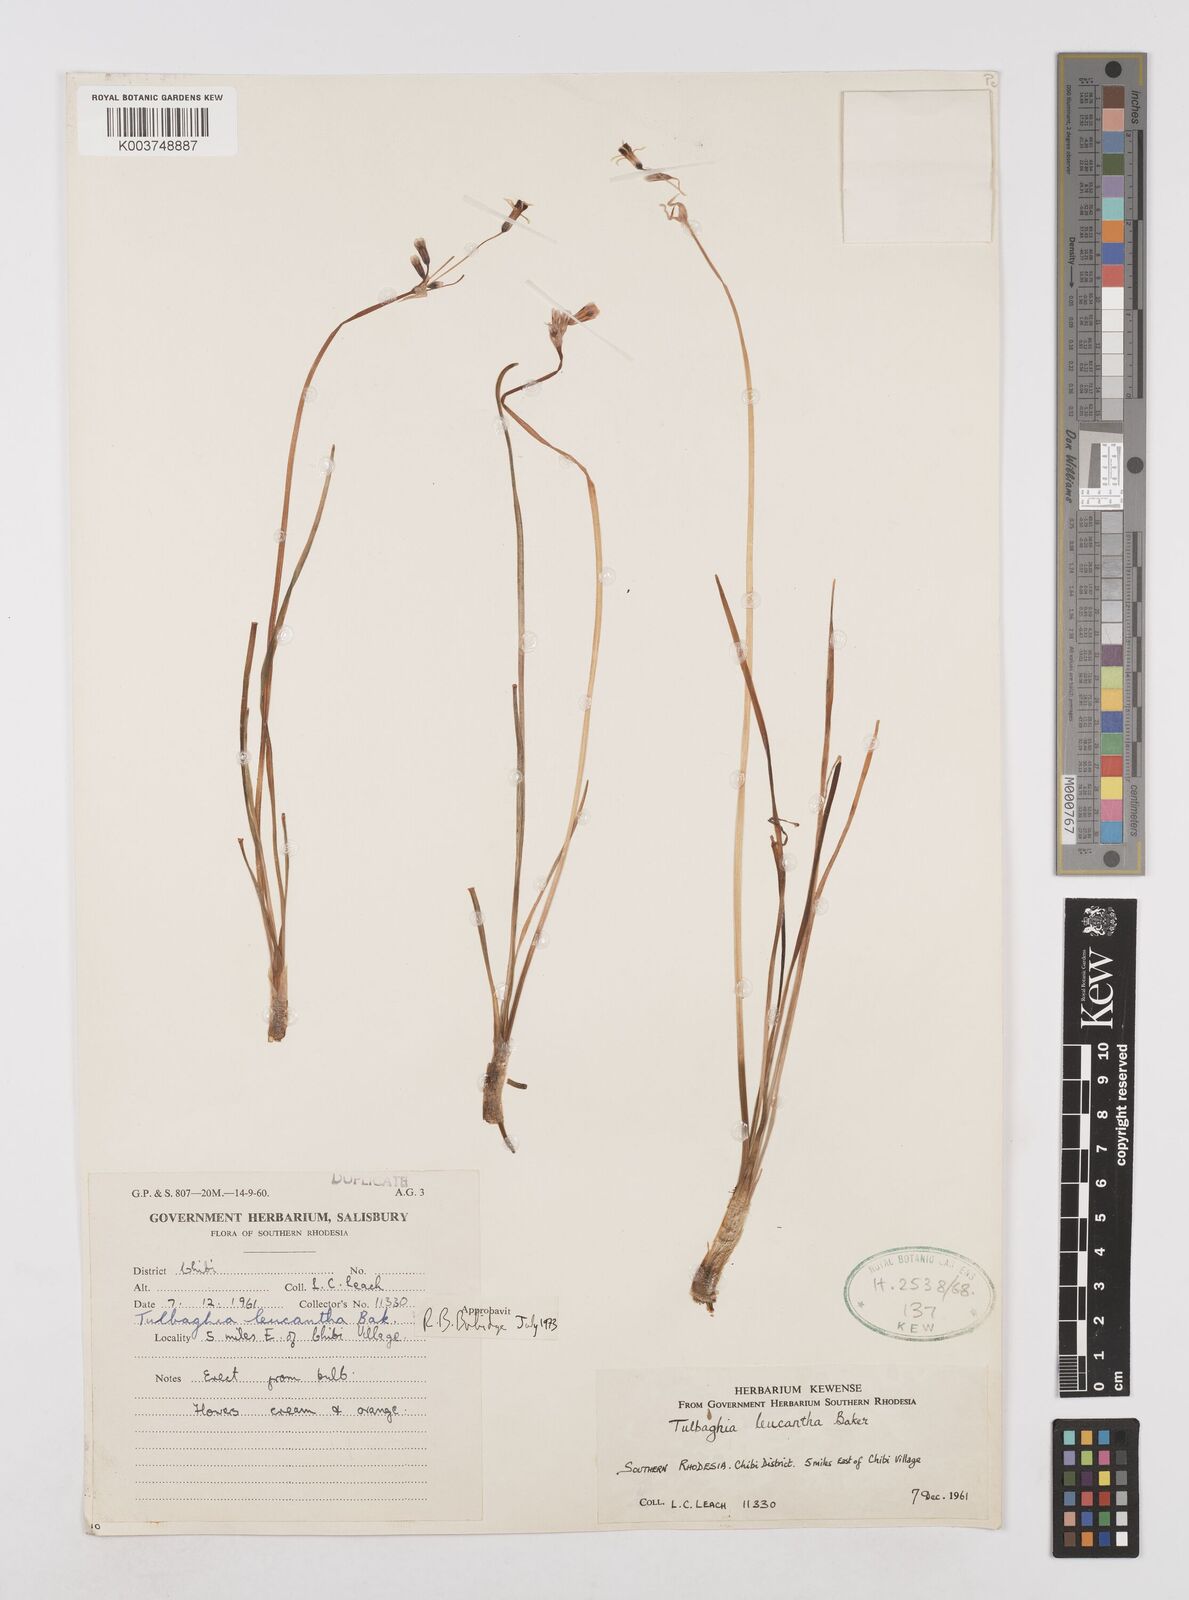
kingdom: Plantae
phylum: Tracheophyta
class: Liliopsida
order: Asparagales
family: Amaryllidaceae
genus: Tulbaghia
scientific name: Tulbaghia leucantha
